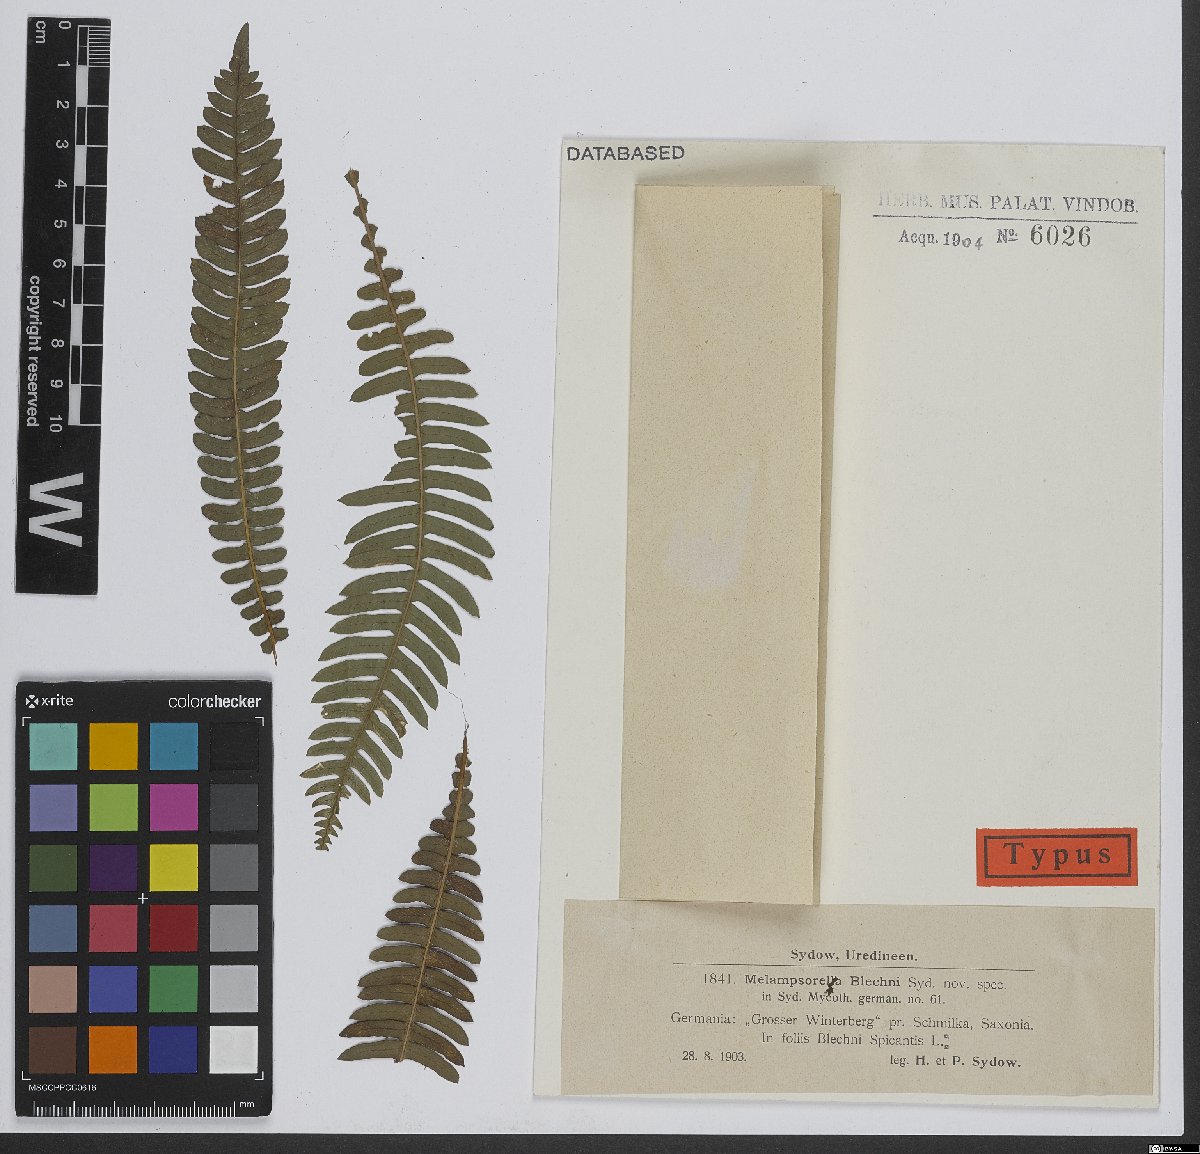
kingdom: Fungi
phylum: Basidiomycota
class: Pucciniomycetes
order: Pucciniales
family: Milesinaceae
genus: Milesina
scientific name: Milesina blechni
